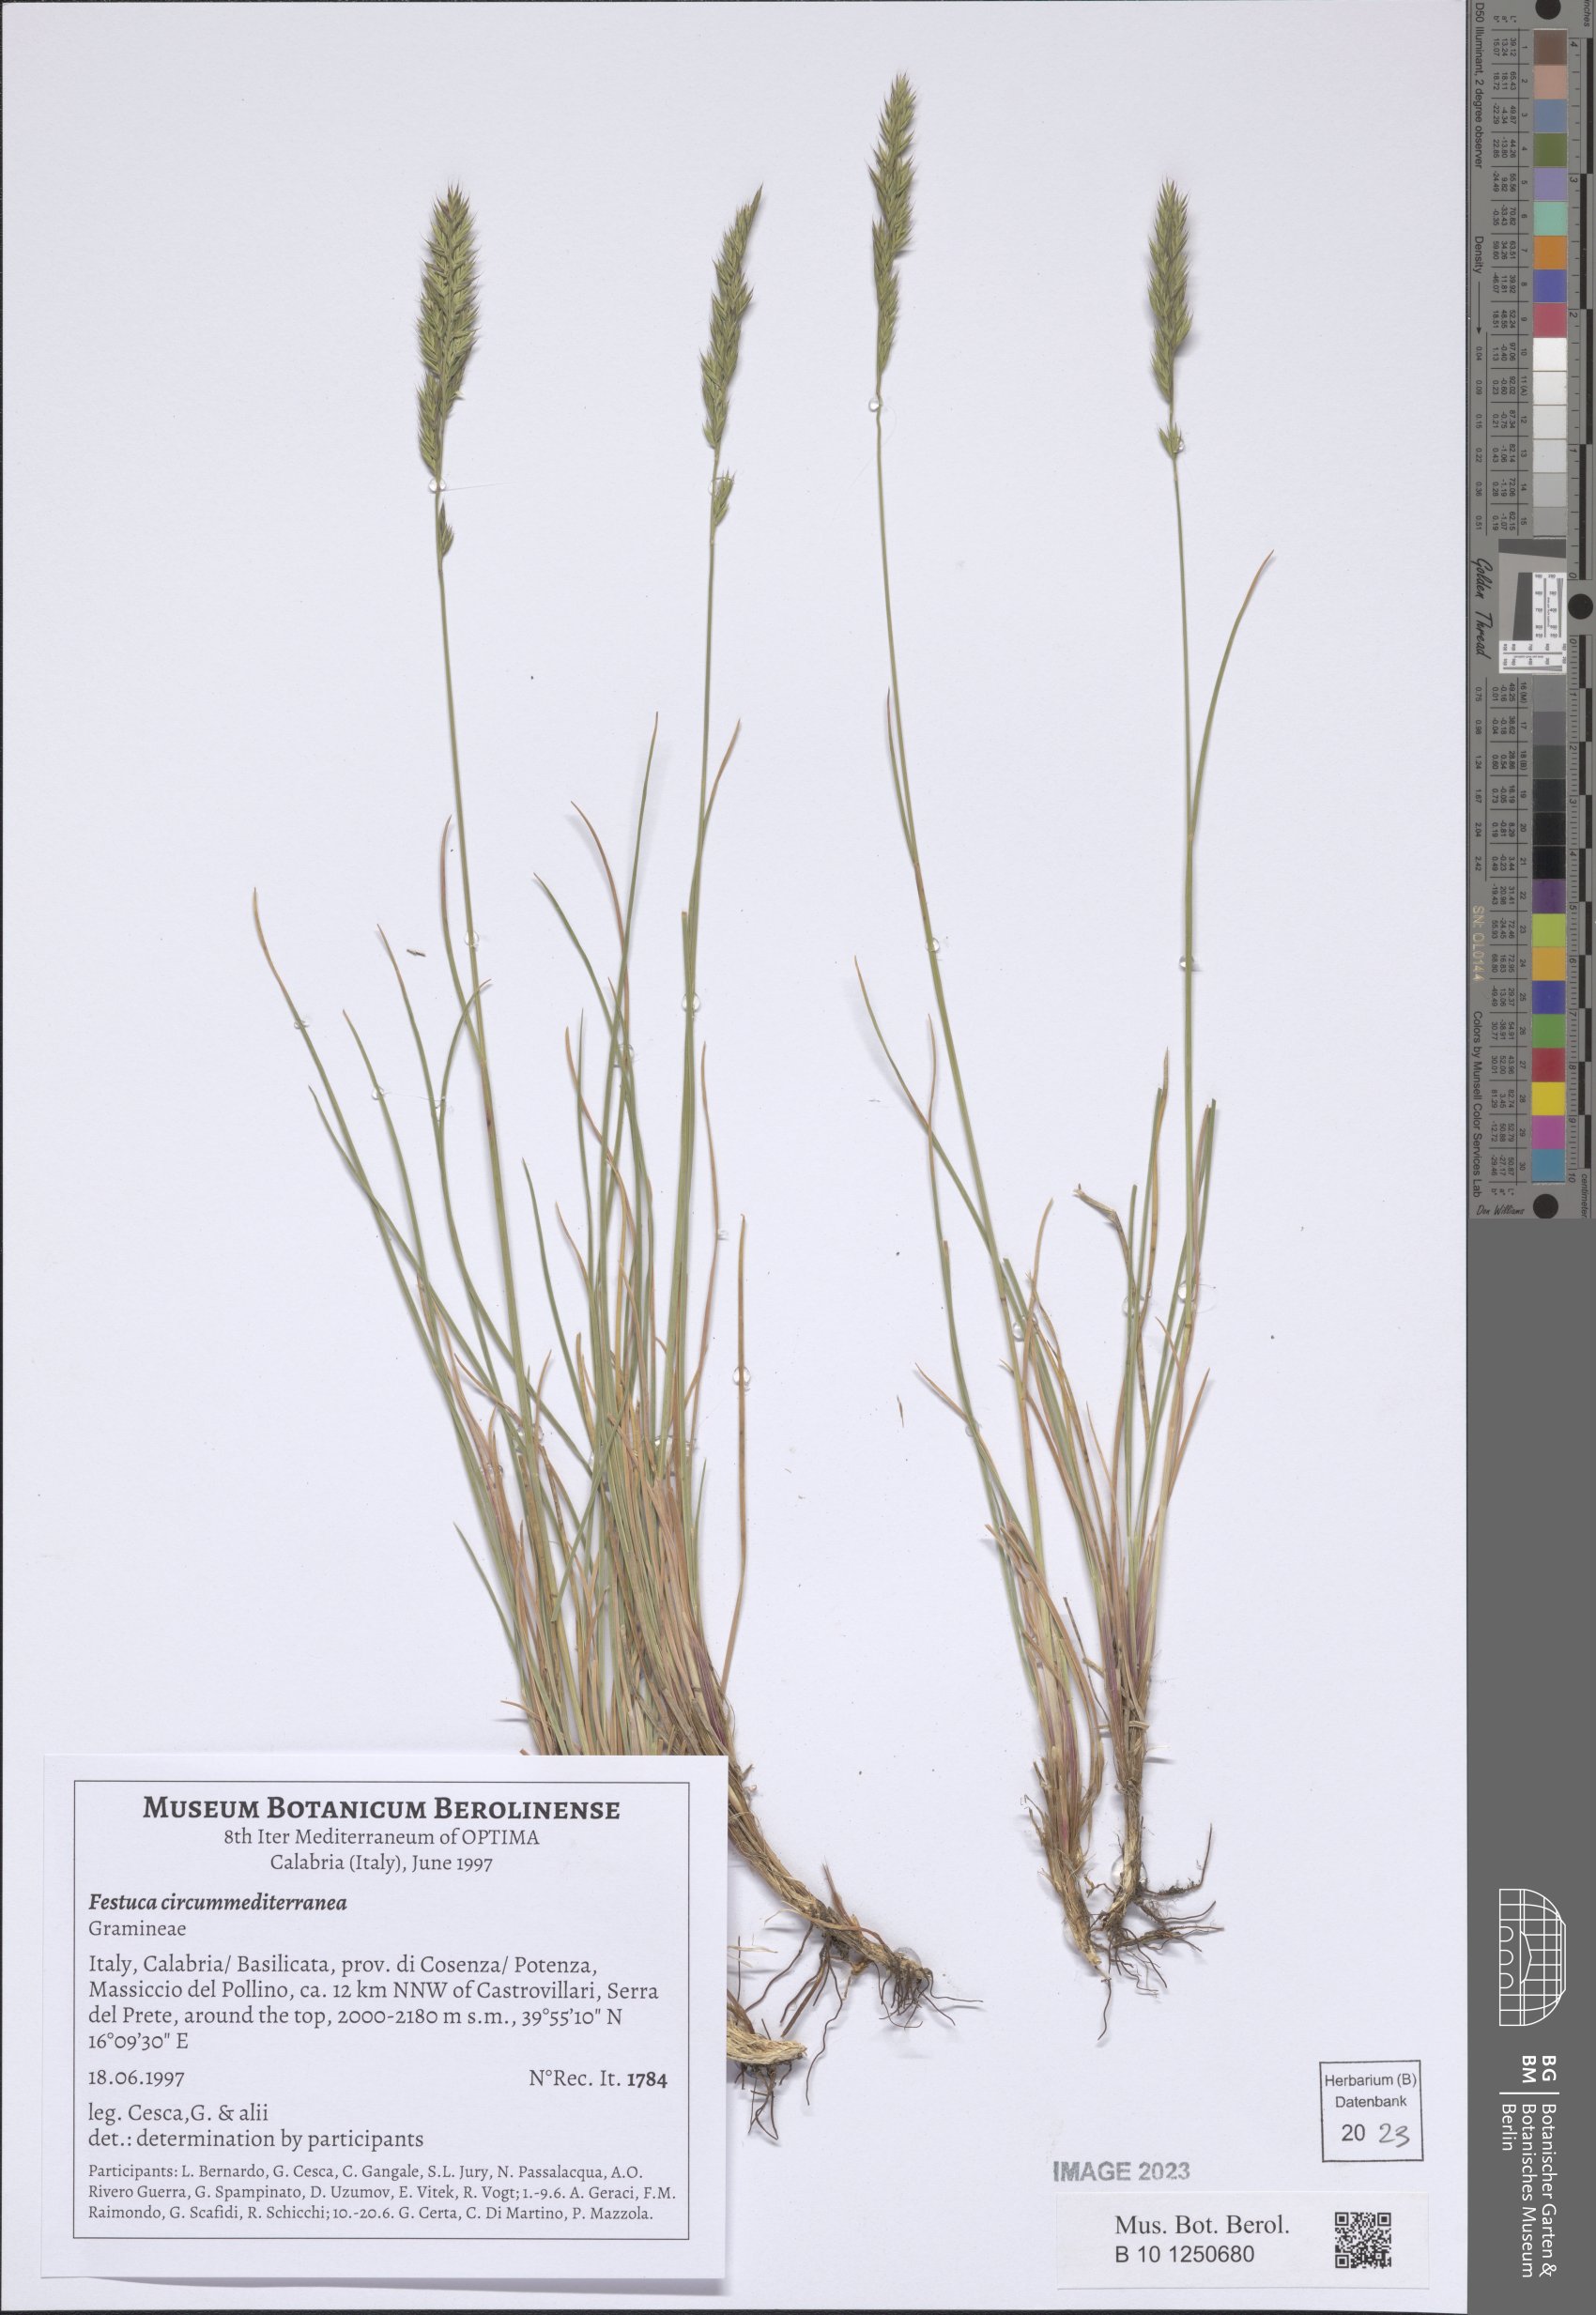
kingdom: Plantae
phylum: Tracheophyta
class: Liliopsida
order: Poales
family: Poaceae
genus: Festuca
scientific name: Festuca circummediterranea
